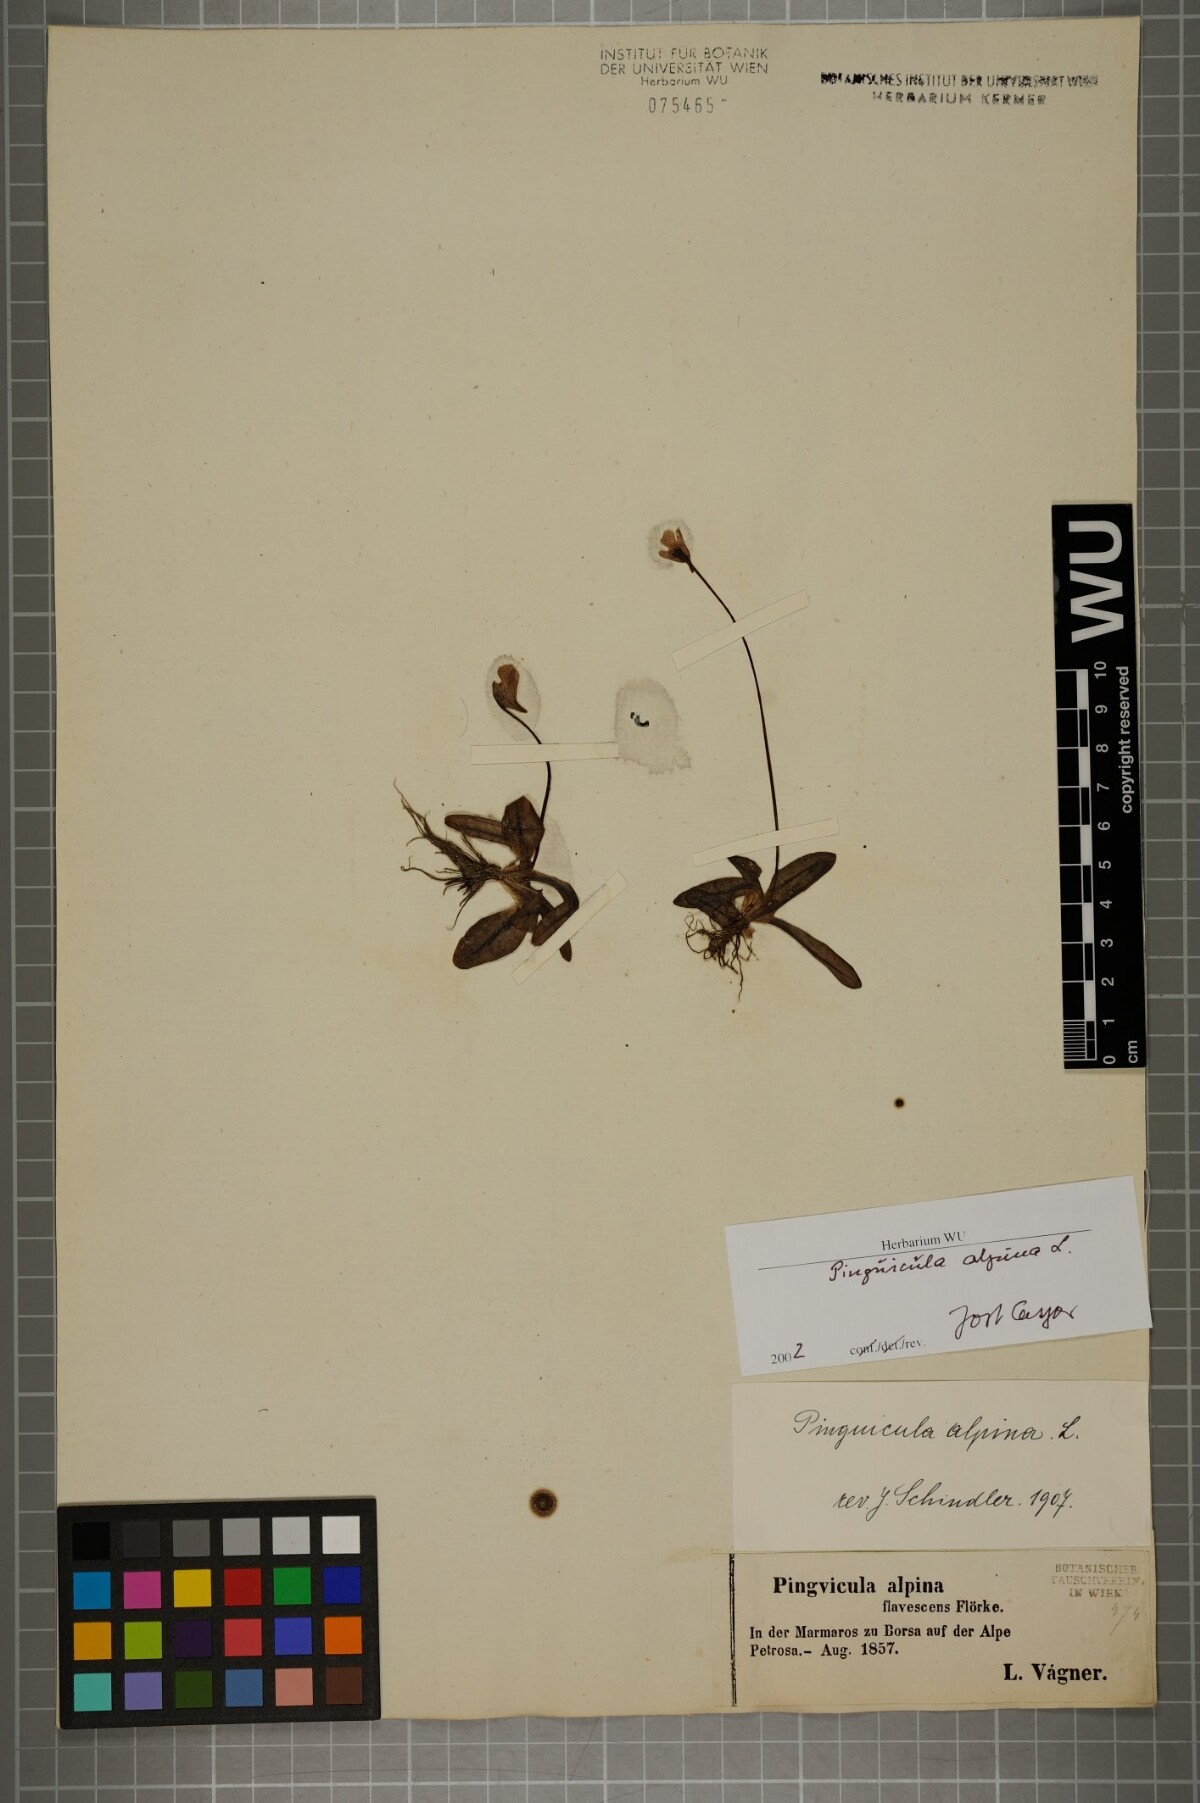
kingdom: Plantae
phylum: Tracheophyta
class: Magnoliopsida
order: Lamiales
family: Lentibulariaceae
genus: Pinguicula
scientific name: Pinguicula alpina
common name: Alpine butterwort
